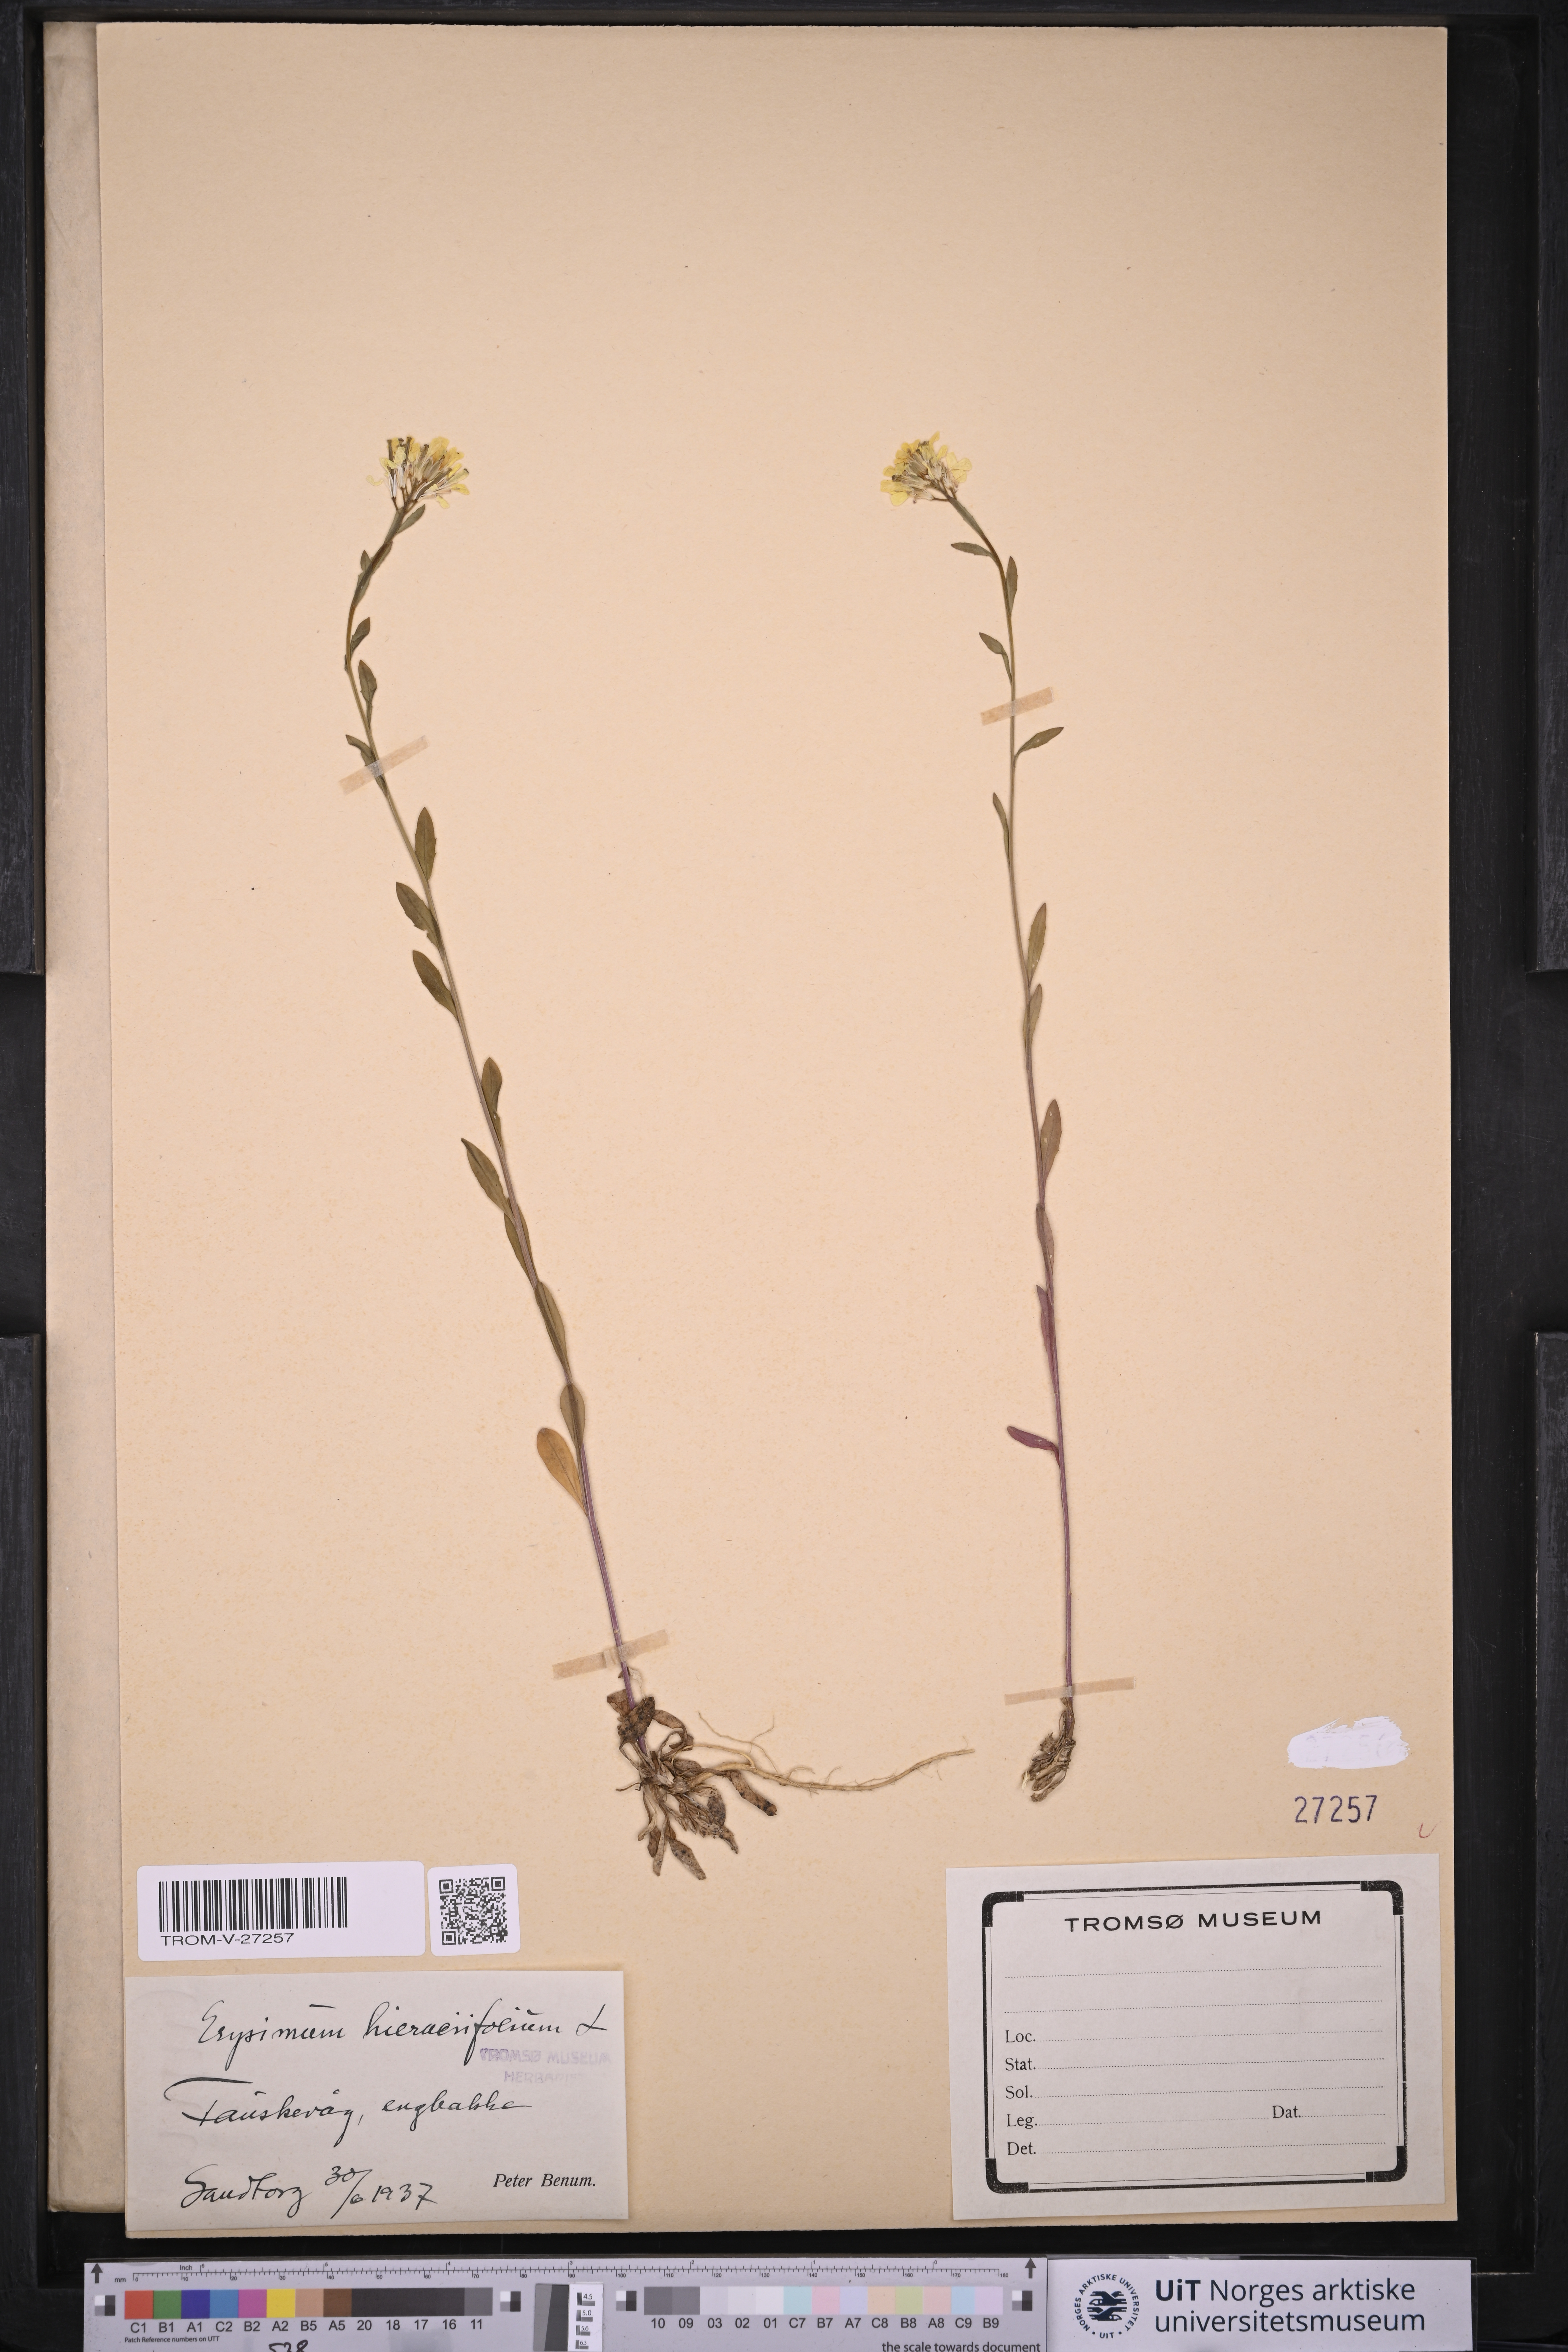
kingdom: Plantae
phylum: Tracheophyta
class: Magnoliopsida
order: Brassicales
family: Brassicaceae
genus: Erysimum
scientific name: Erysimum virgatum
